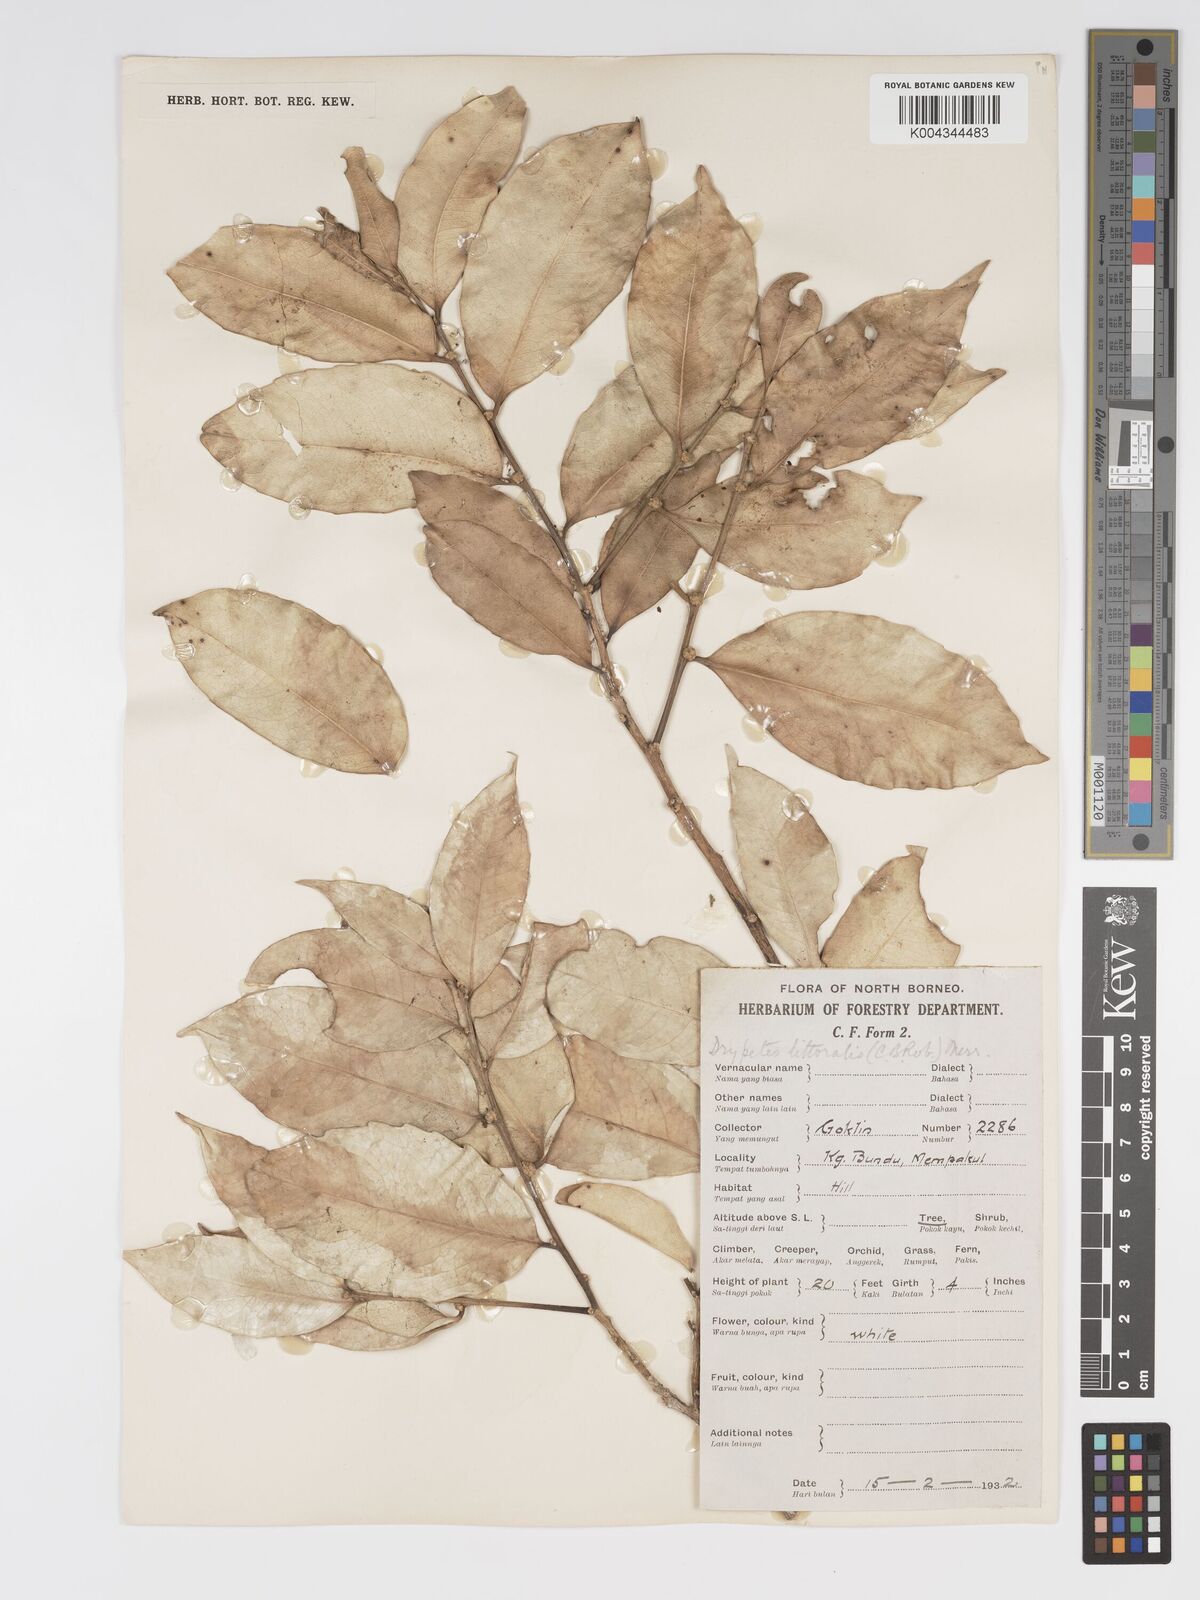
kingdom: Plantae
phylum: Tracheophyta
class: Magnoliopsida
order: Malpighiales
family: Putranjivaceae
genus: Drypetes
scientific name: Drypetes littoralis
